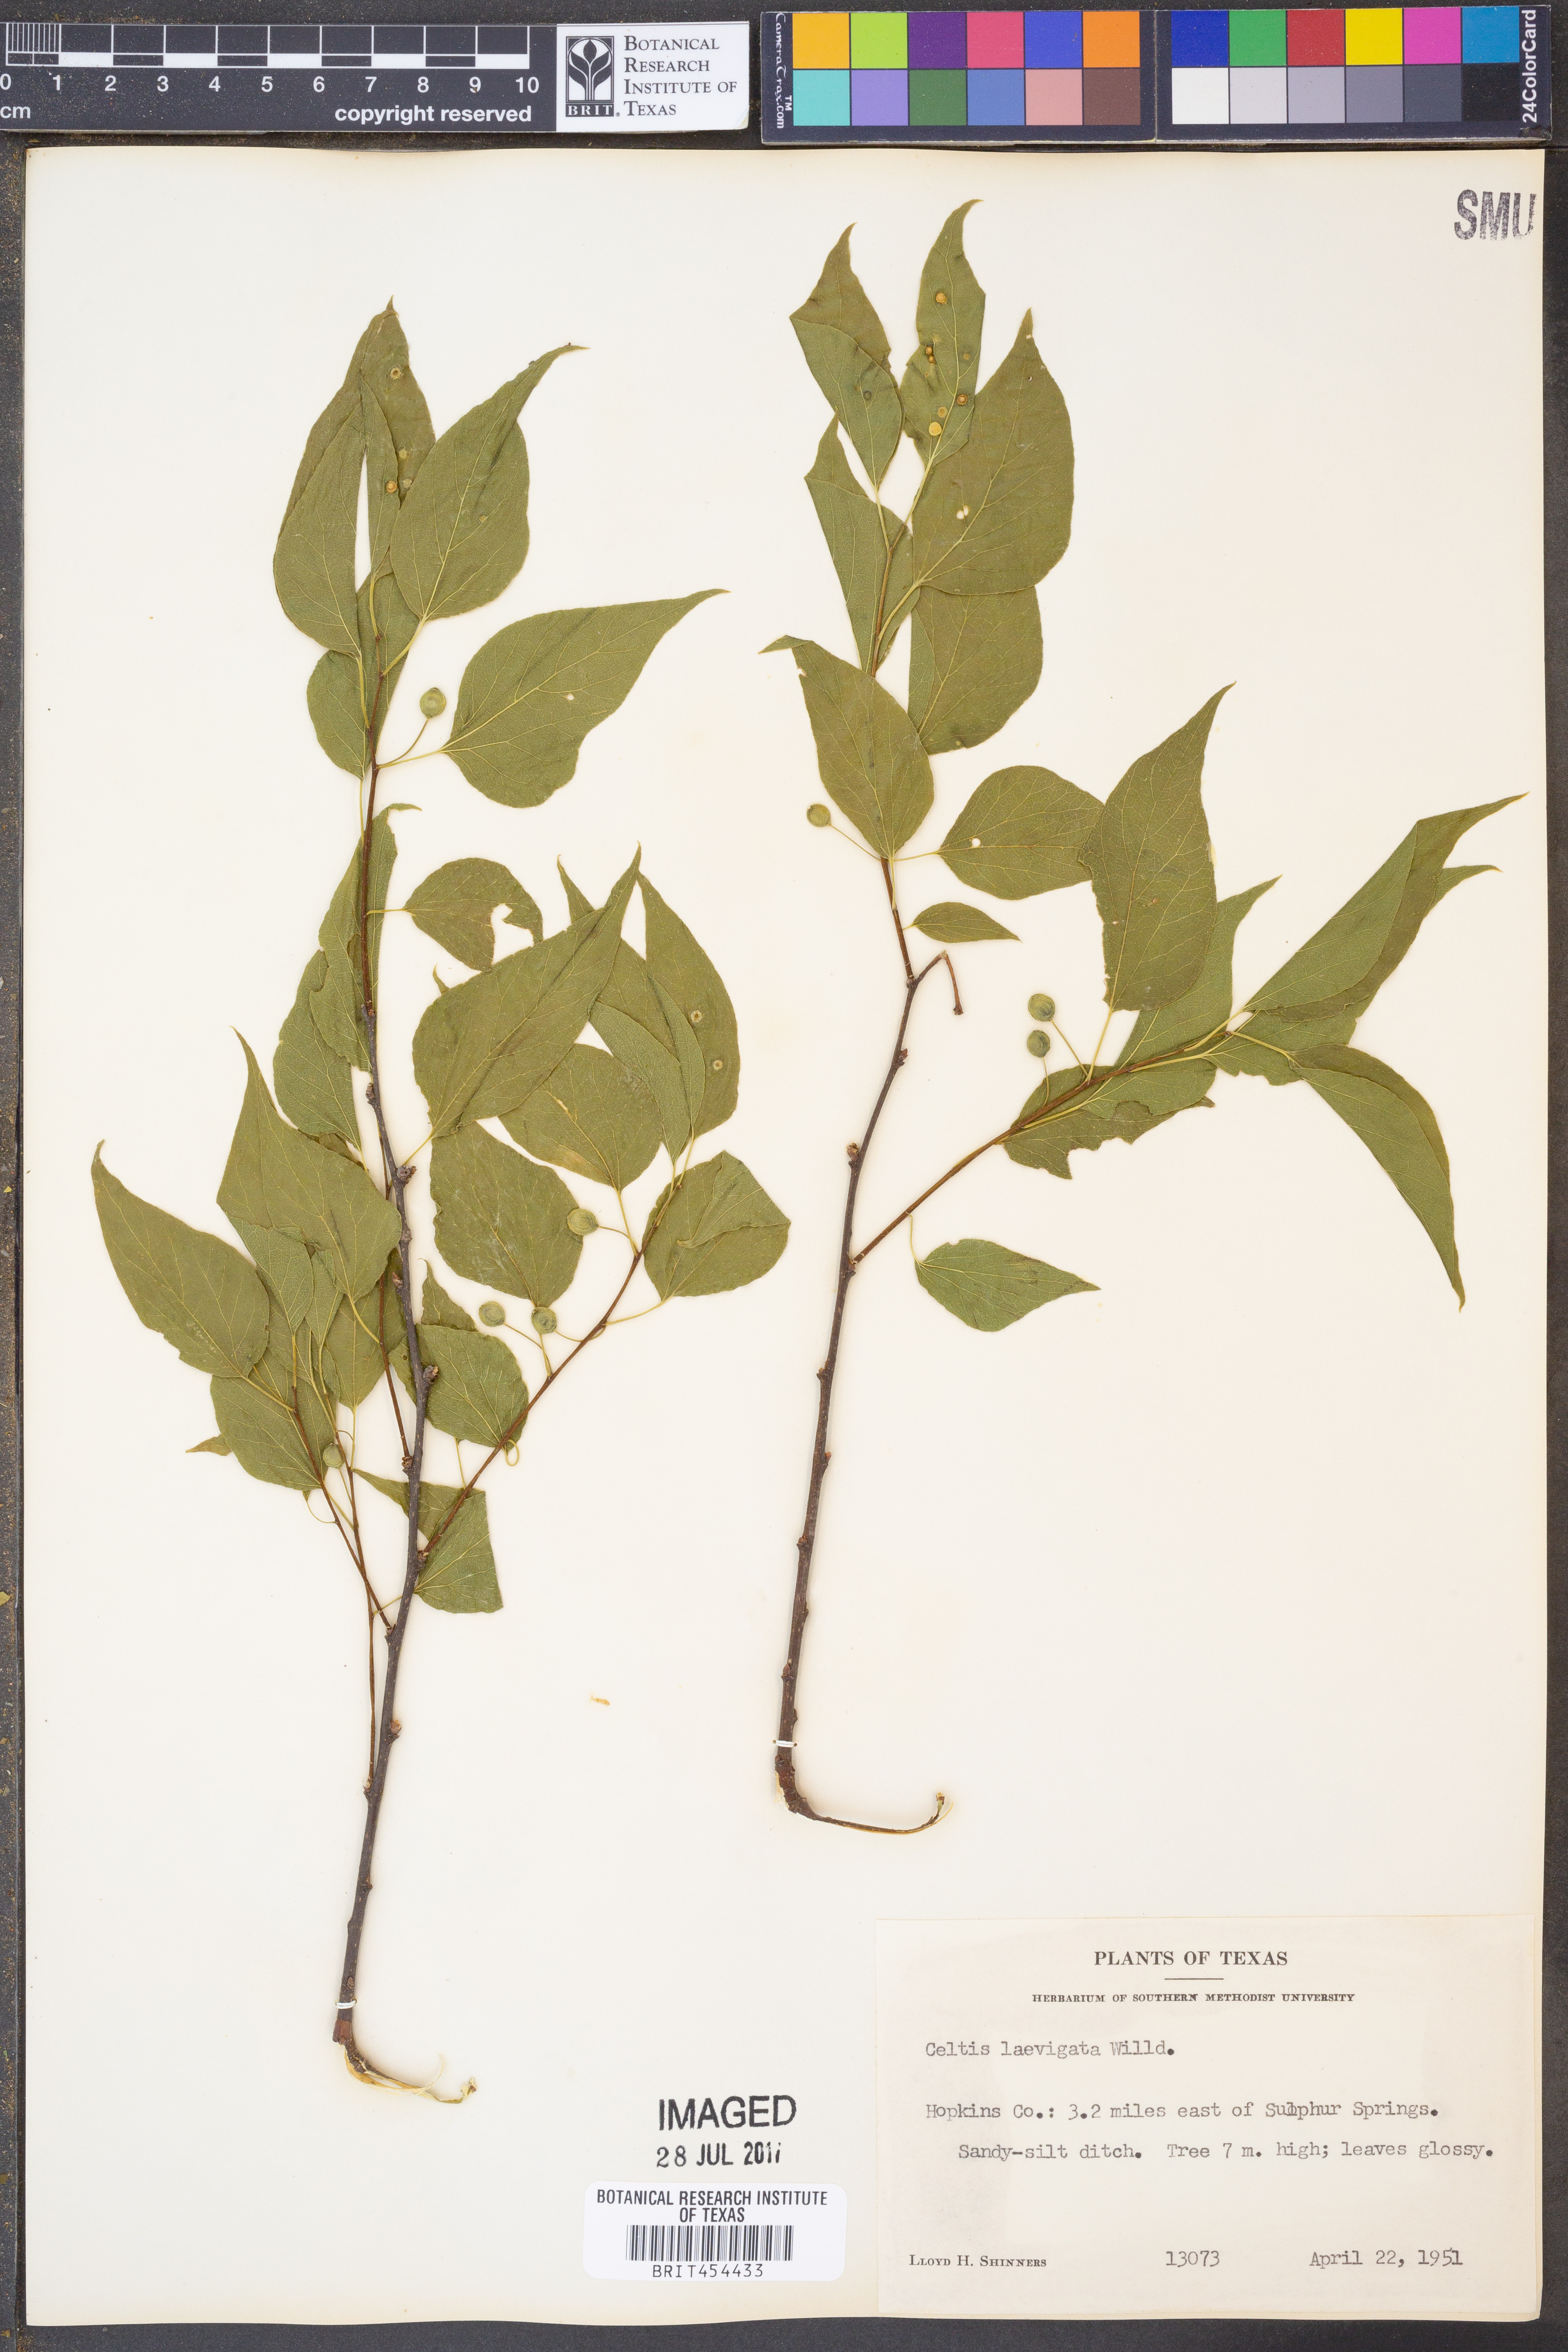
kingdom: Plantae
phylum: Tracheophyta
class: Magnoliopsida
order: Rosales
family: Cannabaceae
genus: Celtis
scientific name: Celtis laevigata
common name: Sugarberry
